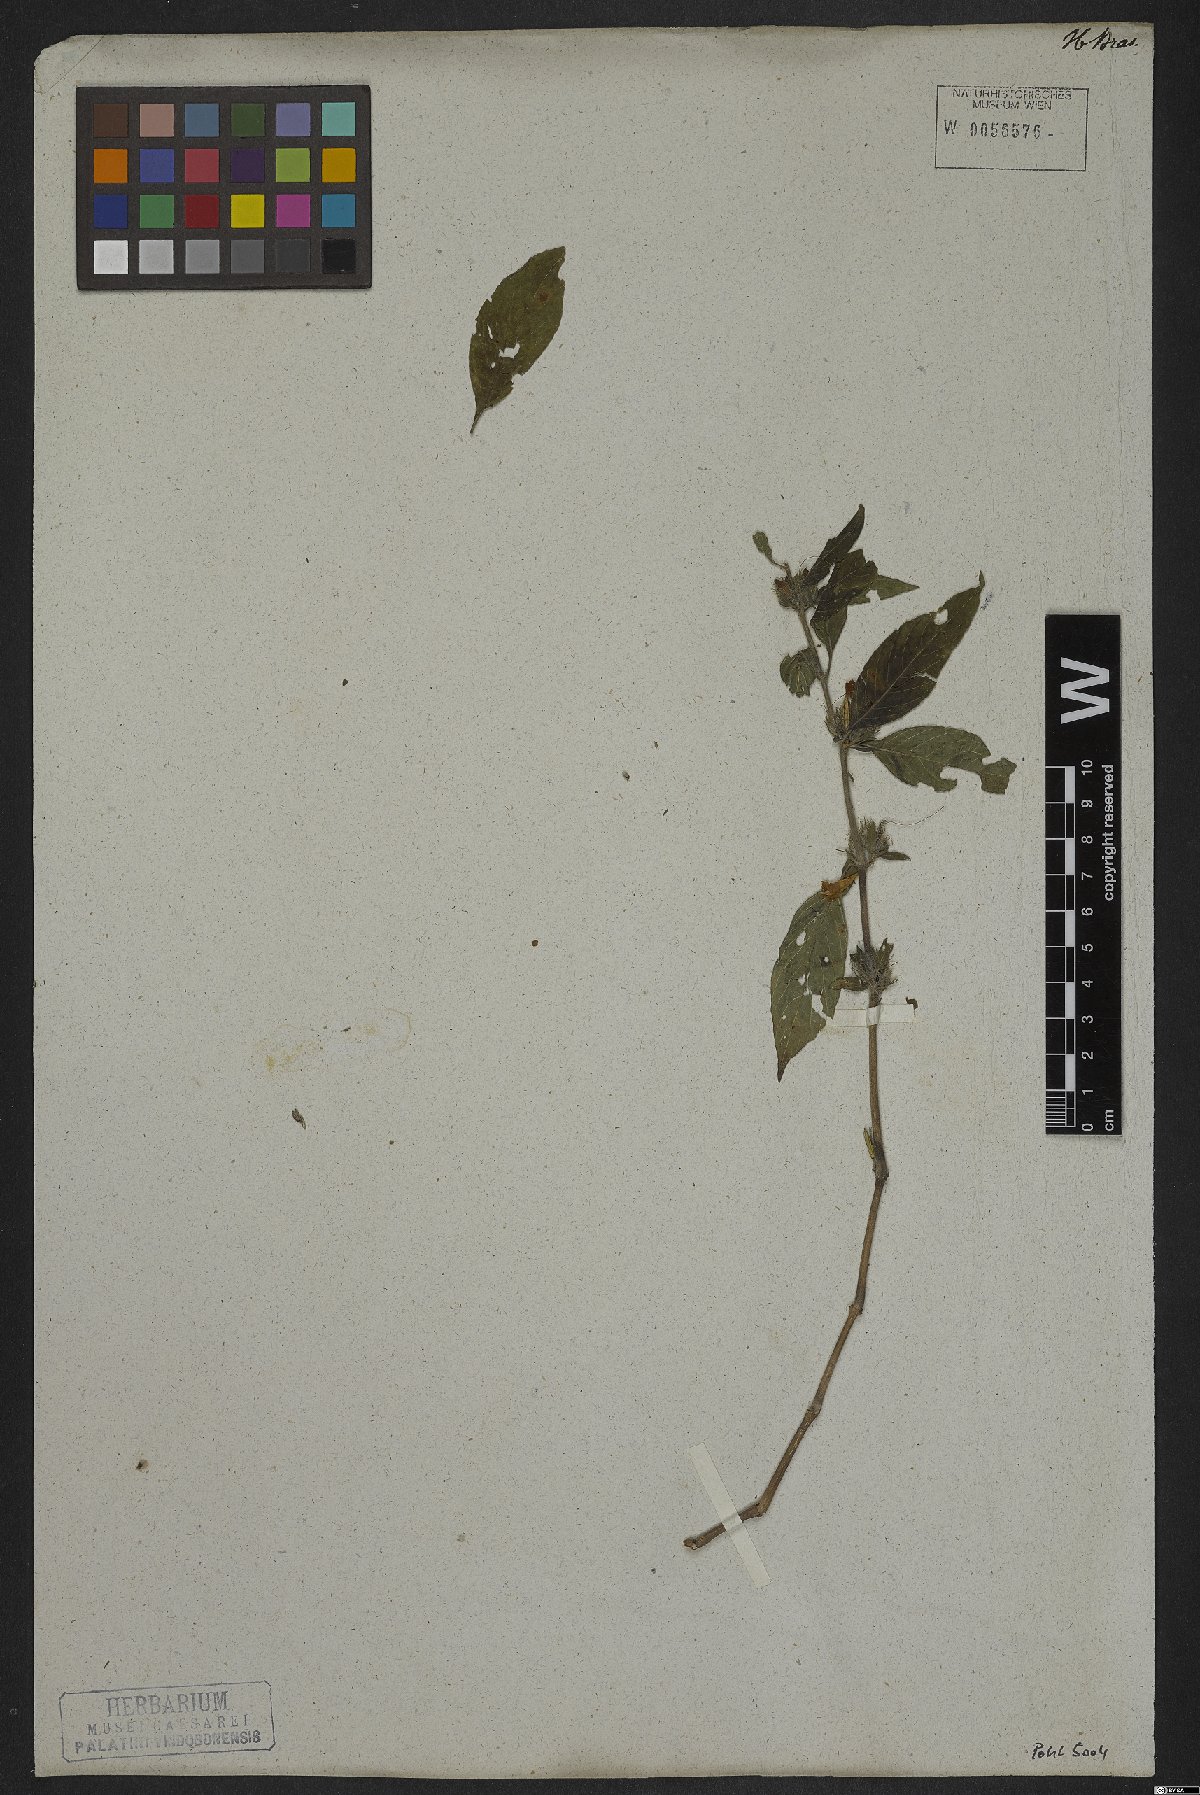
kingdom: Plantae
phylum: Tracheophyta
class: Magnoliopsida
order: Lamiales
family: Acanthaceae
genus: Ruellia
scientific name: Ruellia viscidula
